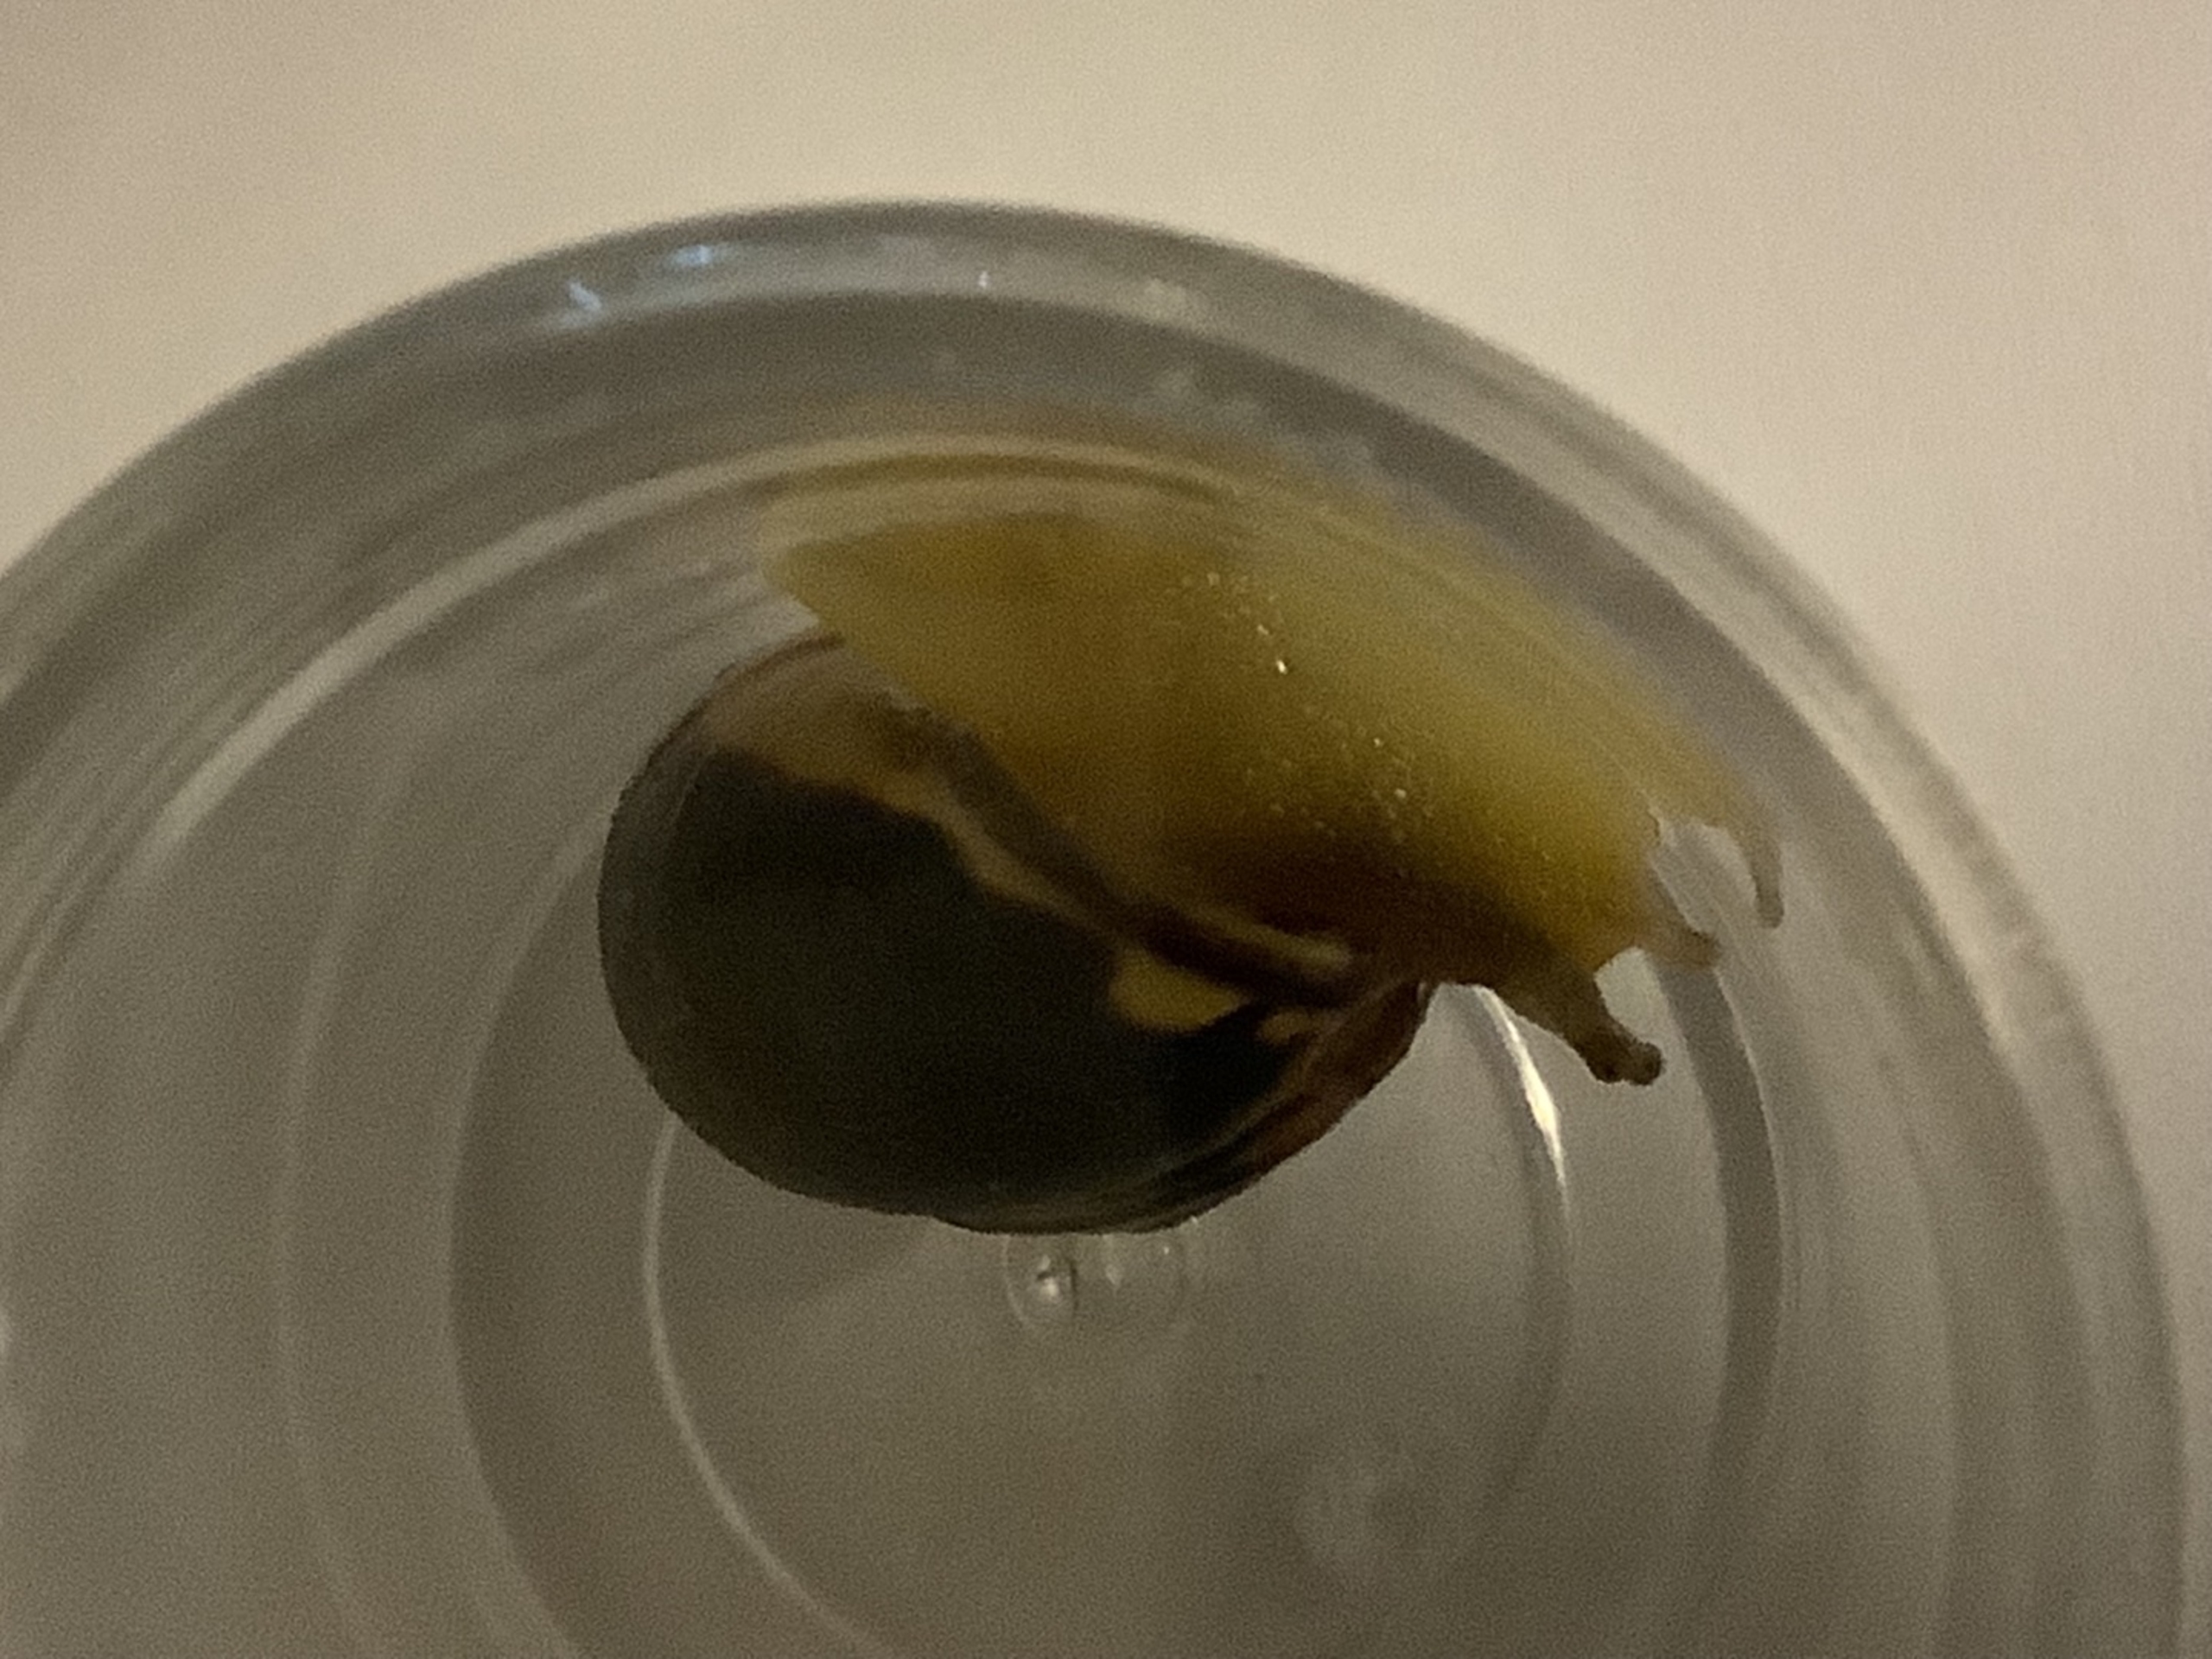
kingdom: Animalia
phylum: Mollusca
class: Gastropoda
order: Stylommatophora
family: Helicidae
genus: Cepaea
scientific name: Cepaea nemoralis
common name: Lundsnegl
